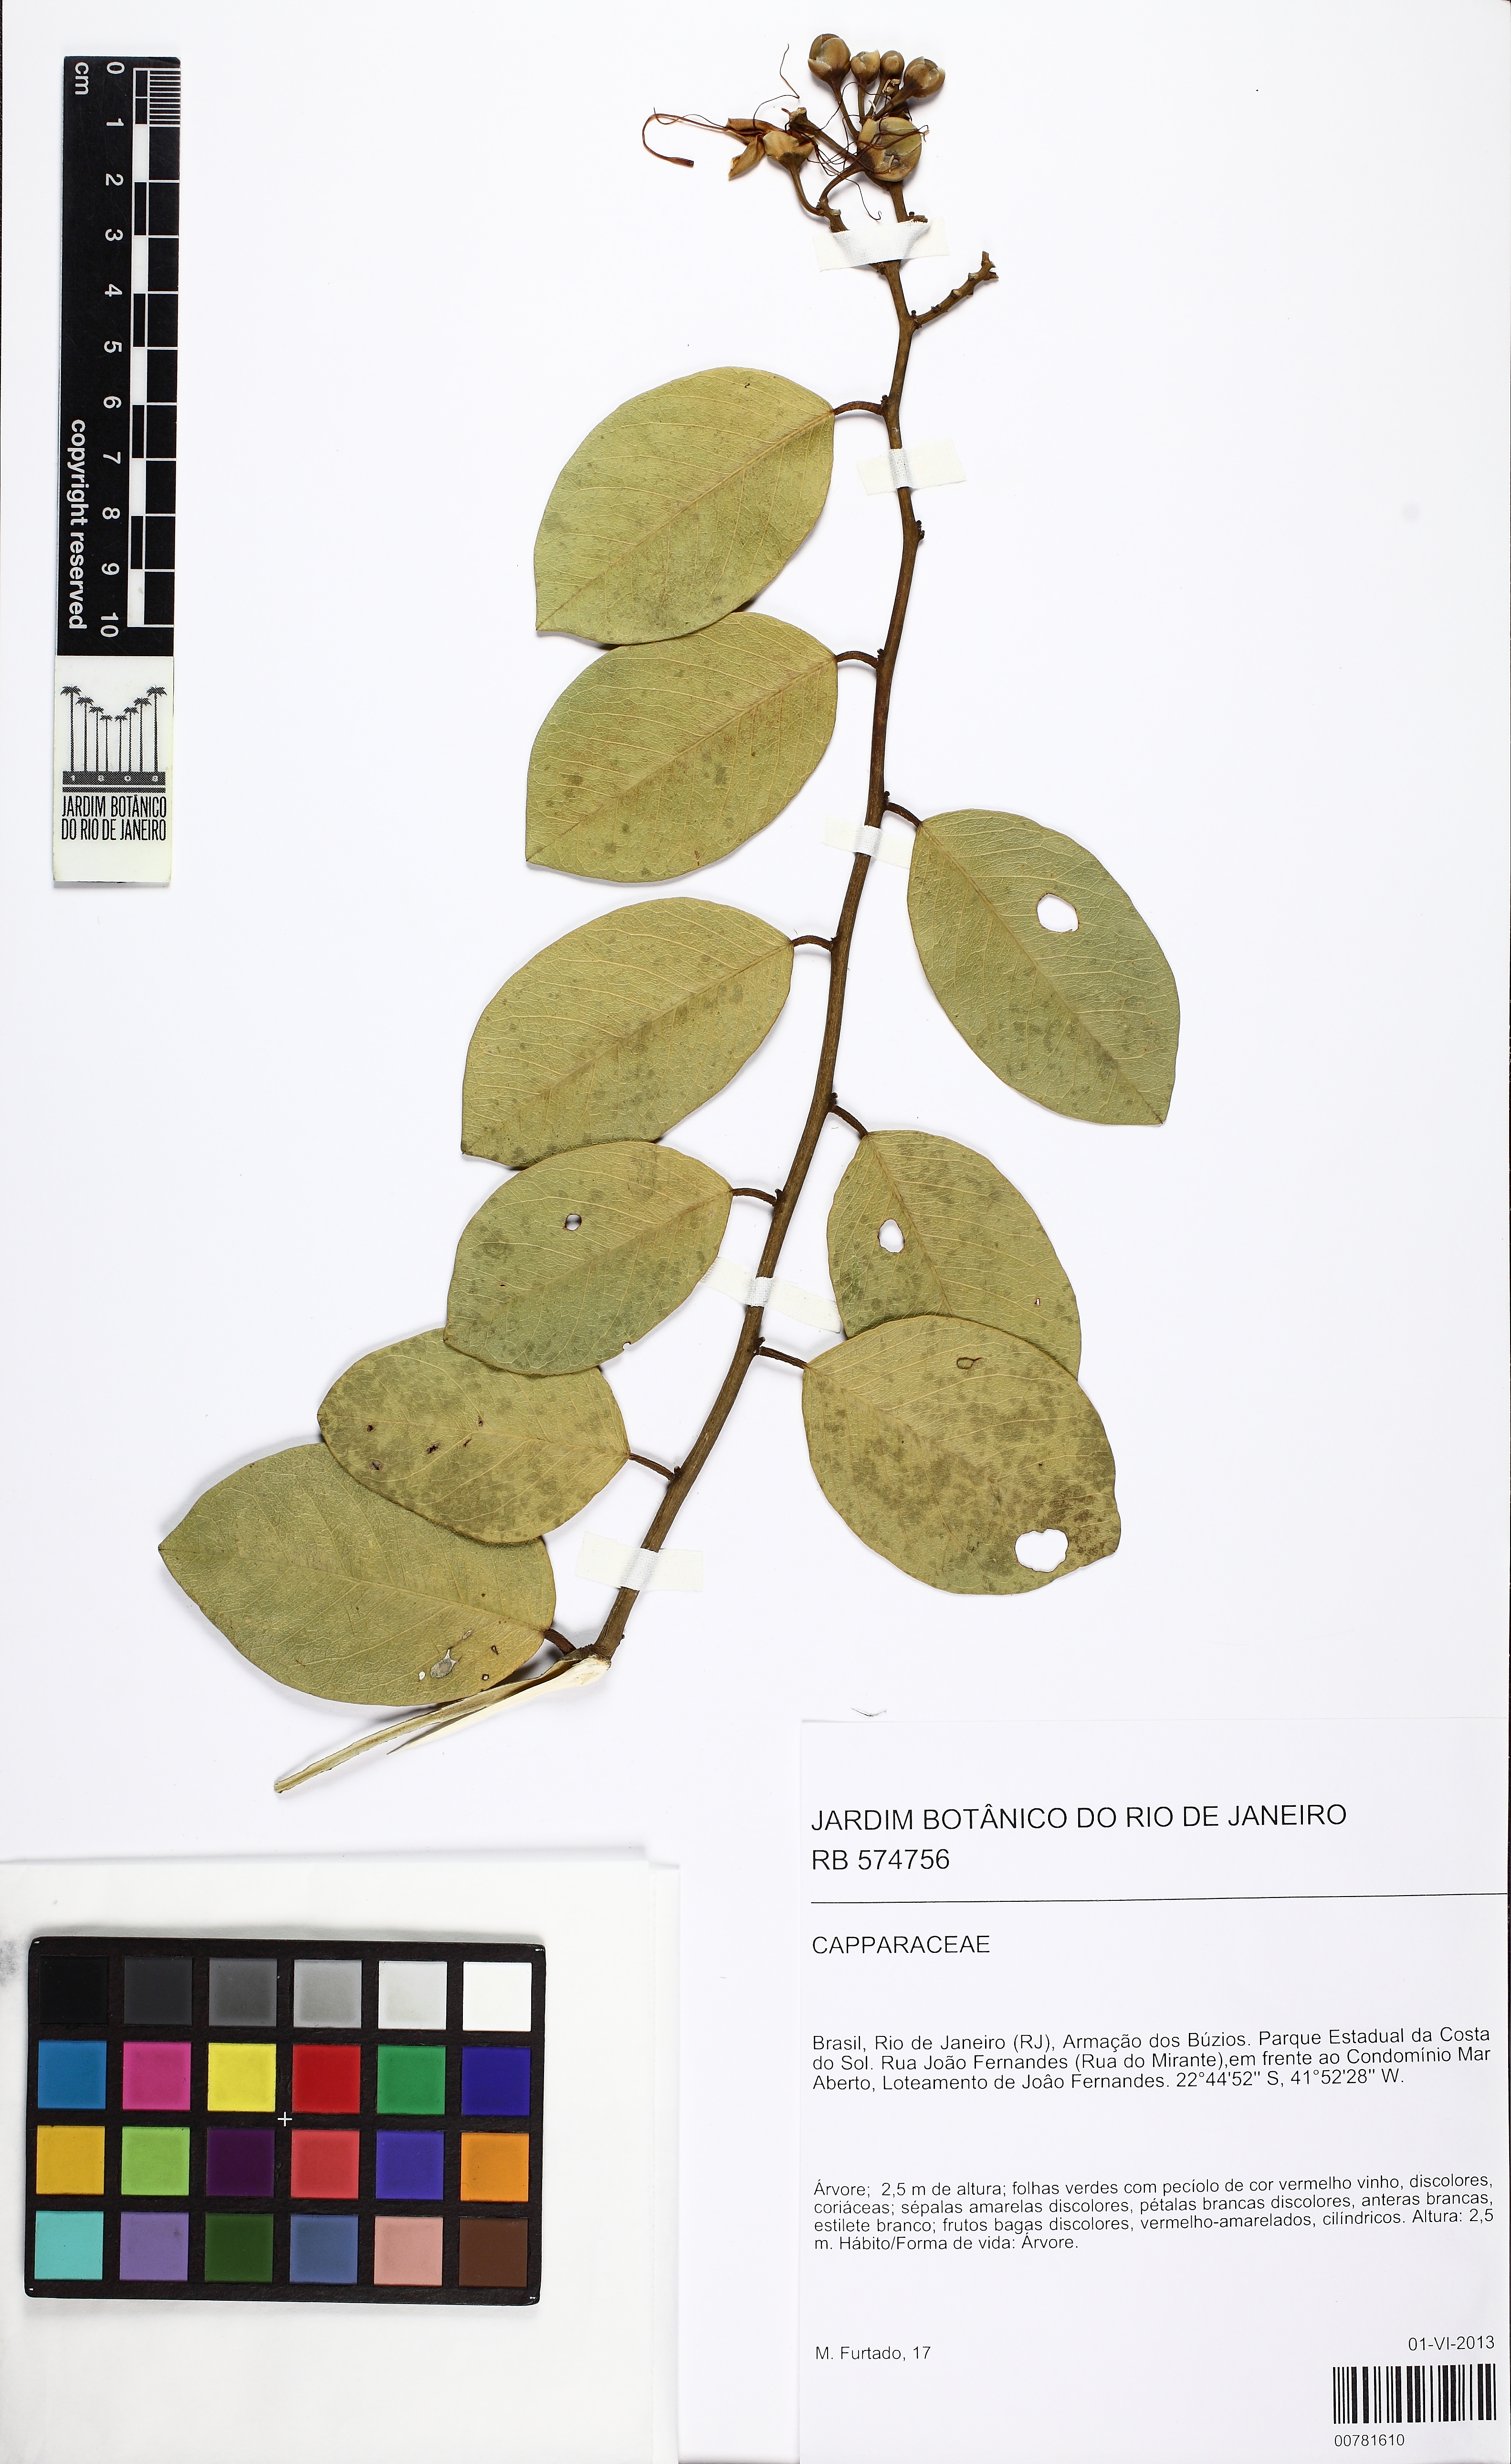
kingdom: Plantae
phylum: Tracheophyta
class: Magnoliopsida
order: Brassicales
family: Capparaceae
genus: Cynophalla
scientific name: Cynophalla flexuosa
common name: Capertree
